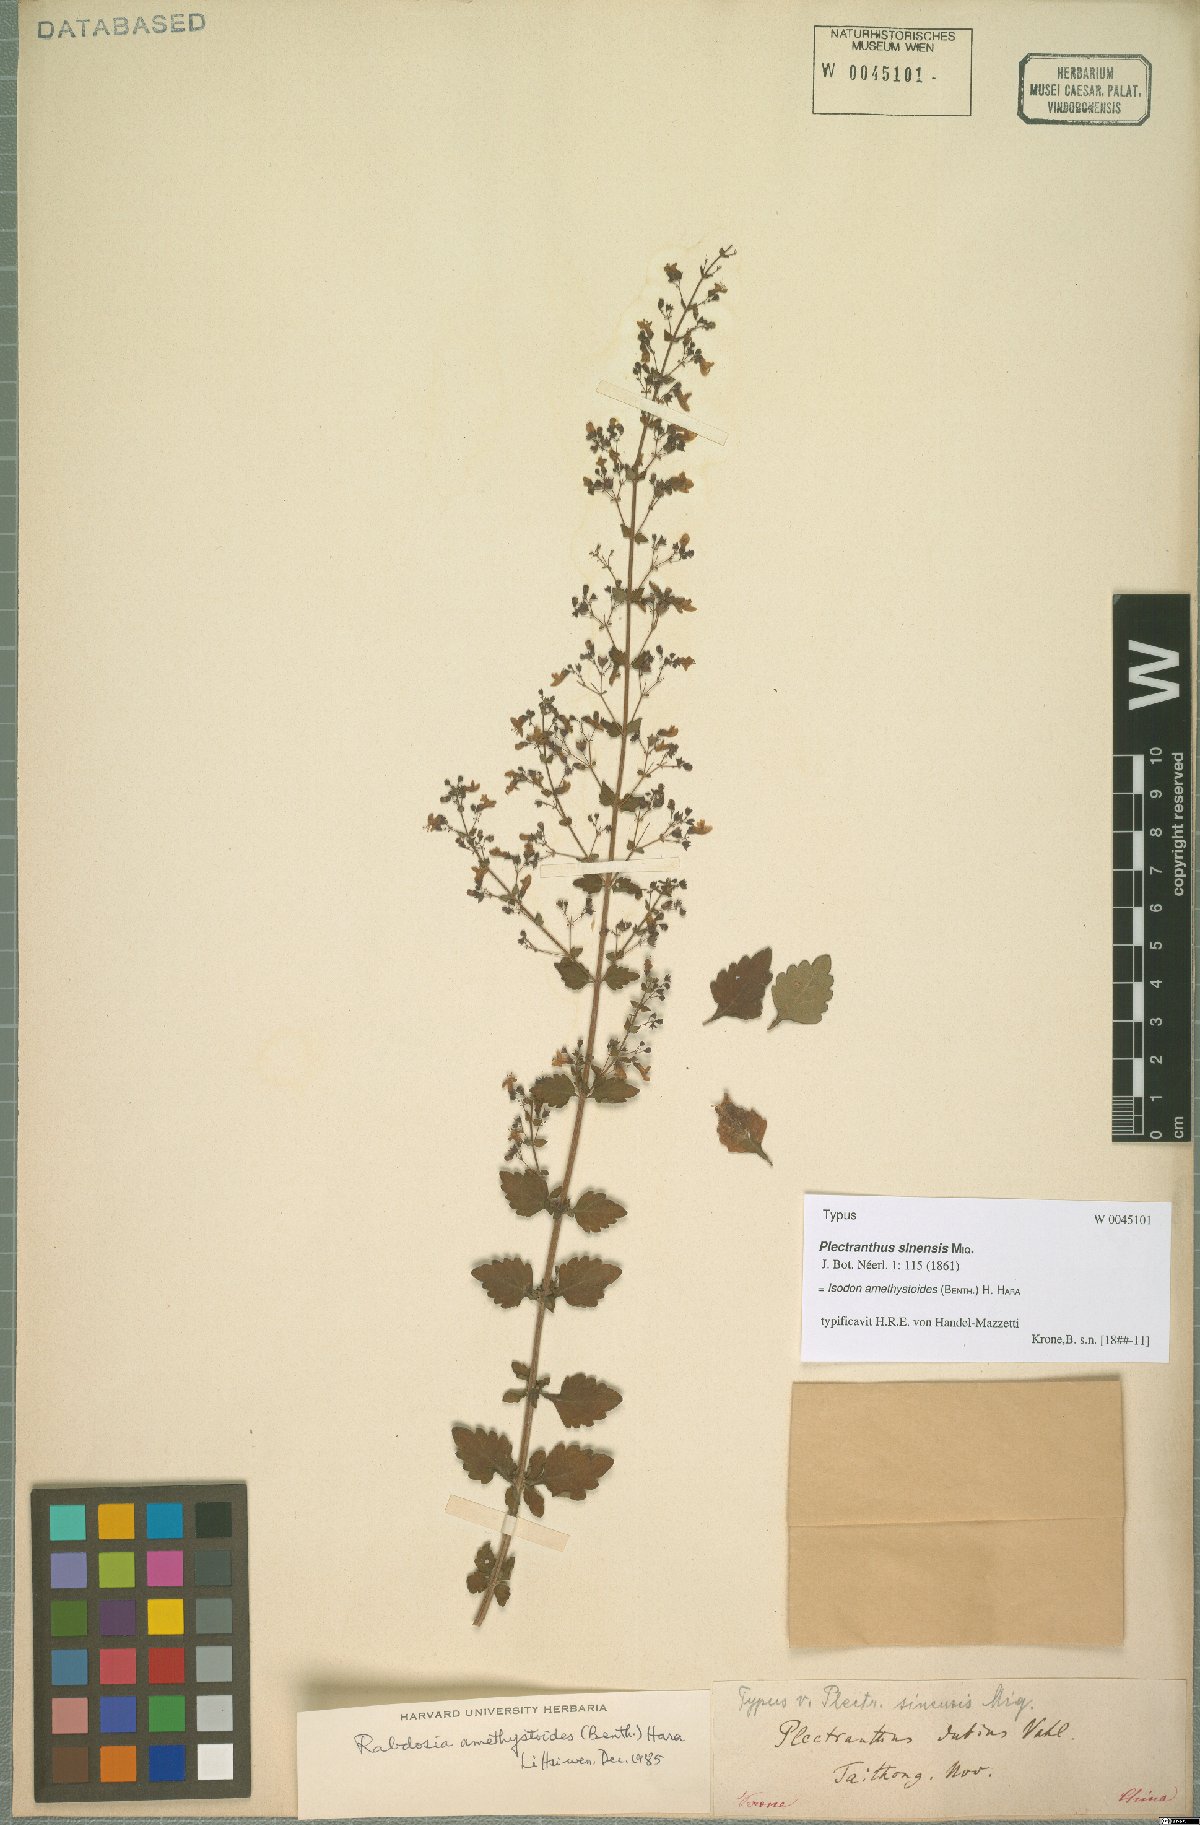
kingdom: Plantae
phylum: Tracheophyta
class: Magnoliopsida
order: Lamiales
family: Lamiaceae
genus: Isodon
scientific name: Isodon amethystoides
